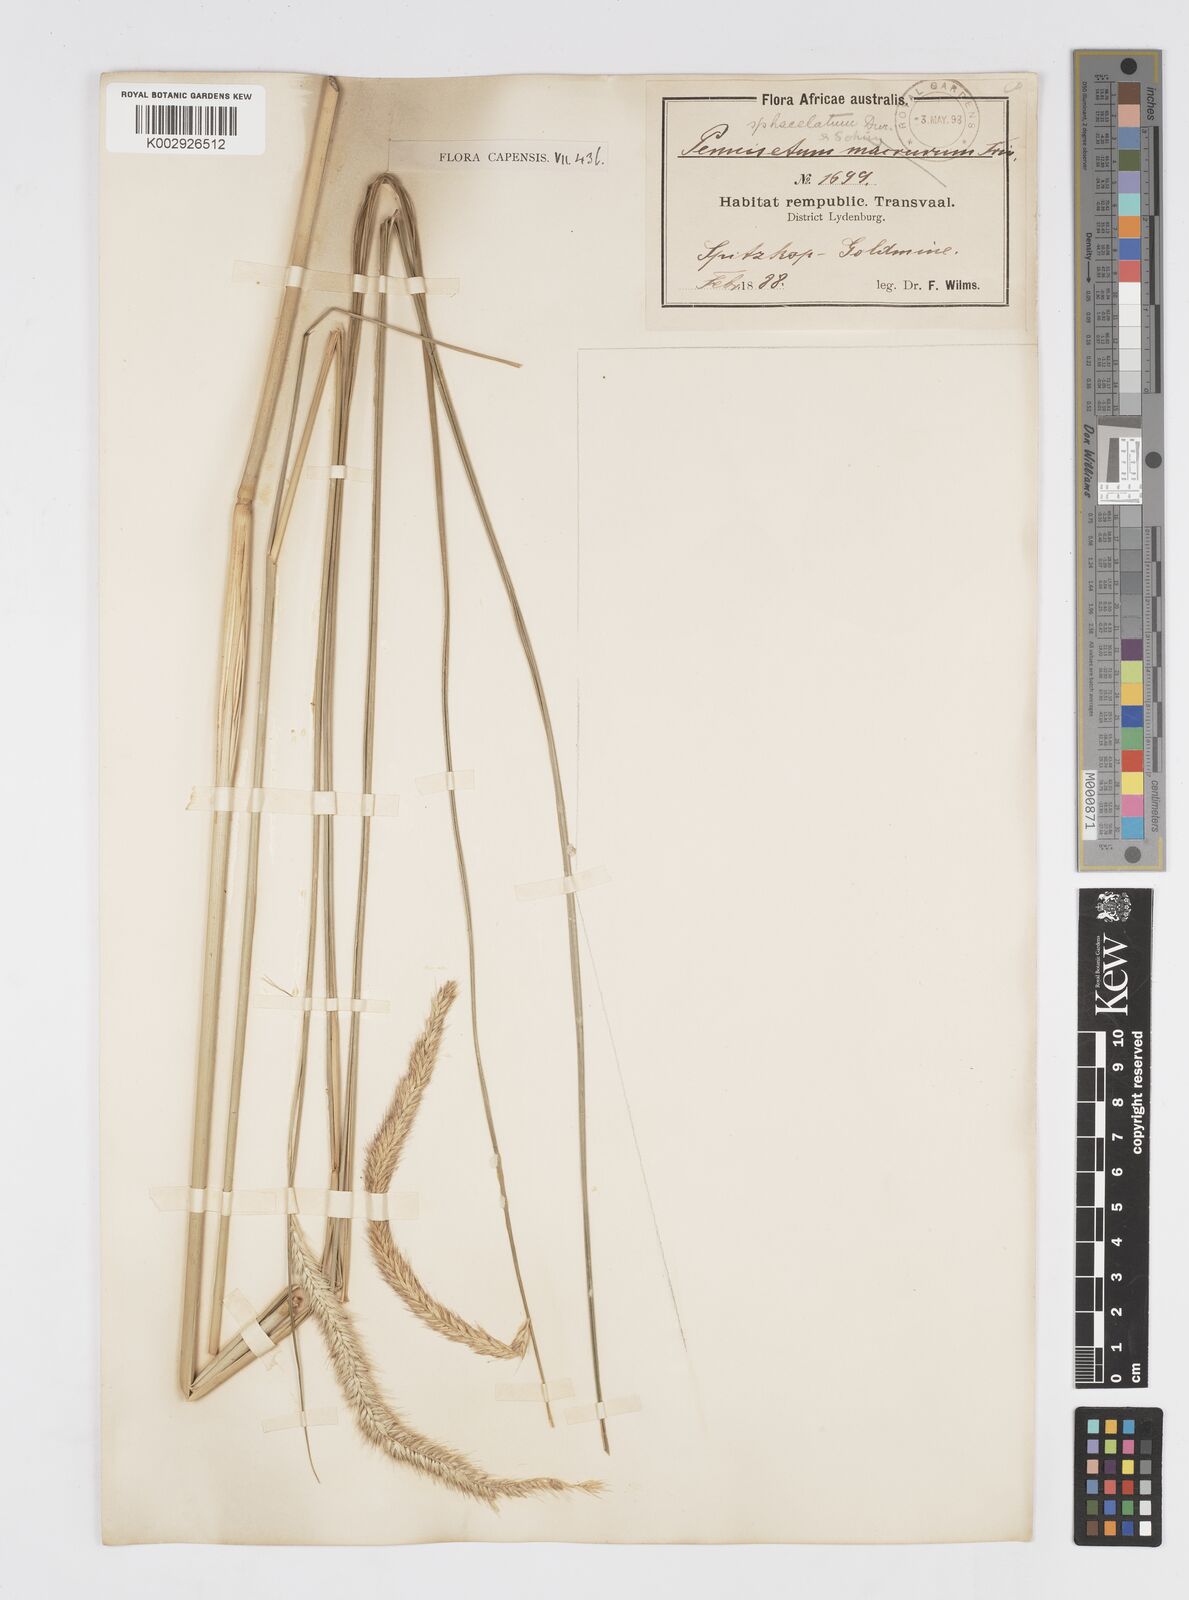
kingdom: Plantae
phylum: Tracheophyta
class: Liliopsida
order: Poales
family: Poaceae
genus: Cenchrus
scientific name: Cenchrus sphacelatus
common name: Bulgras
